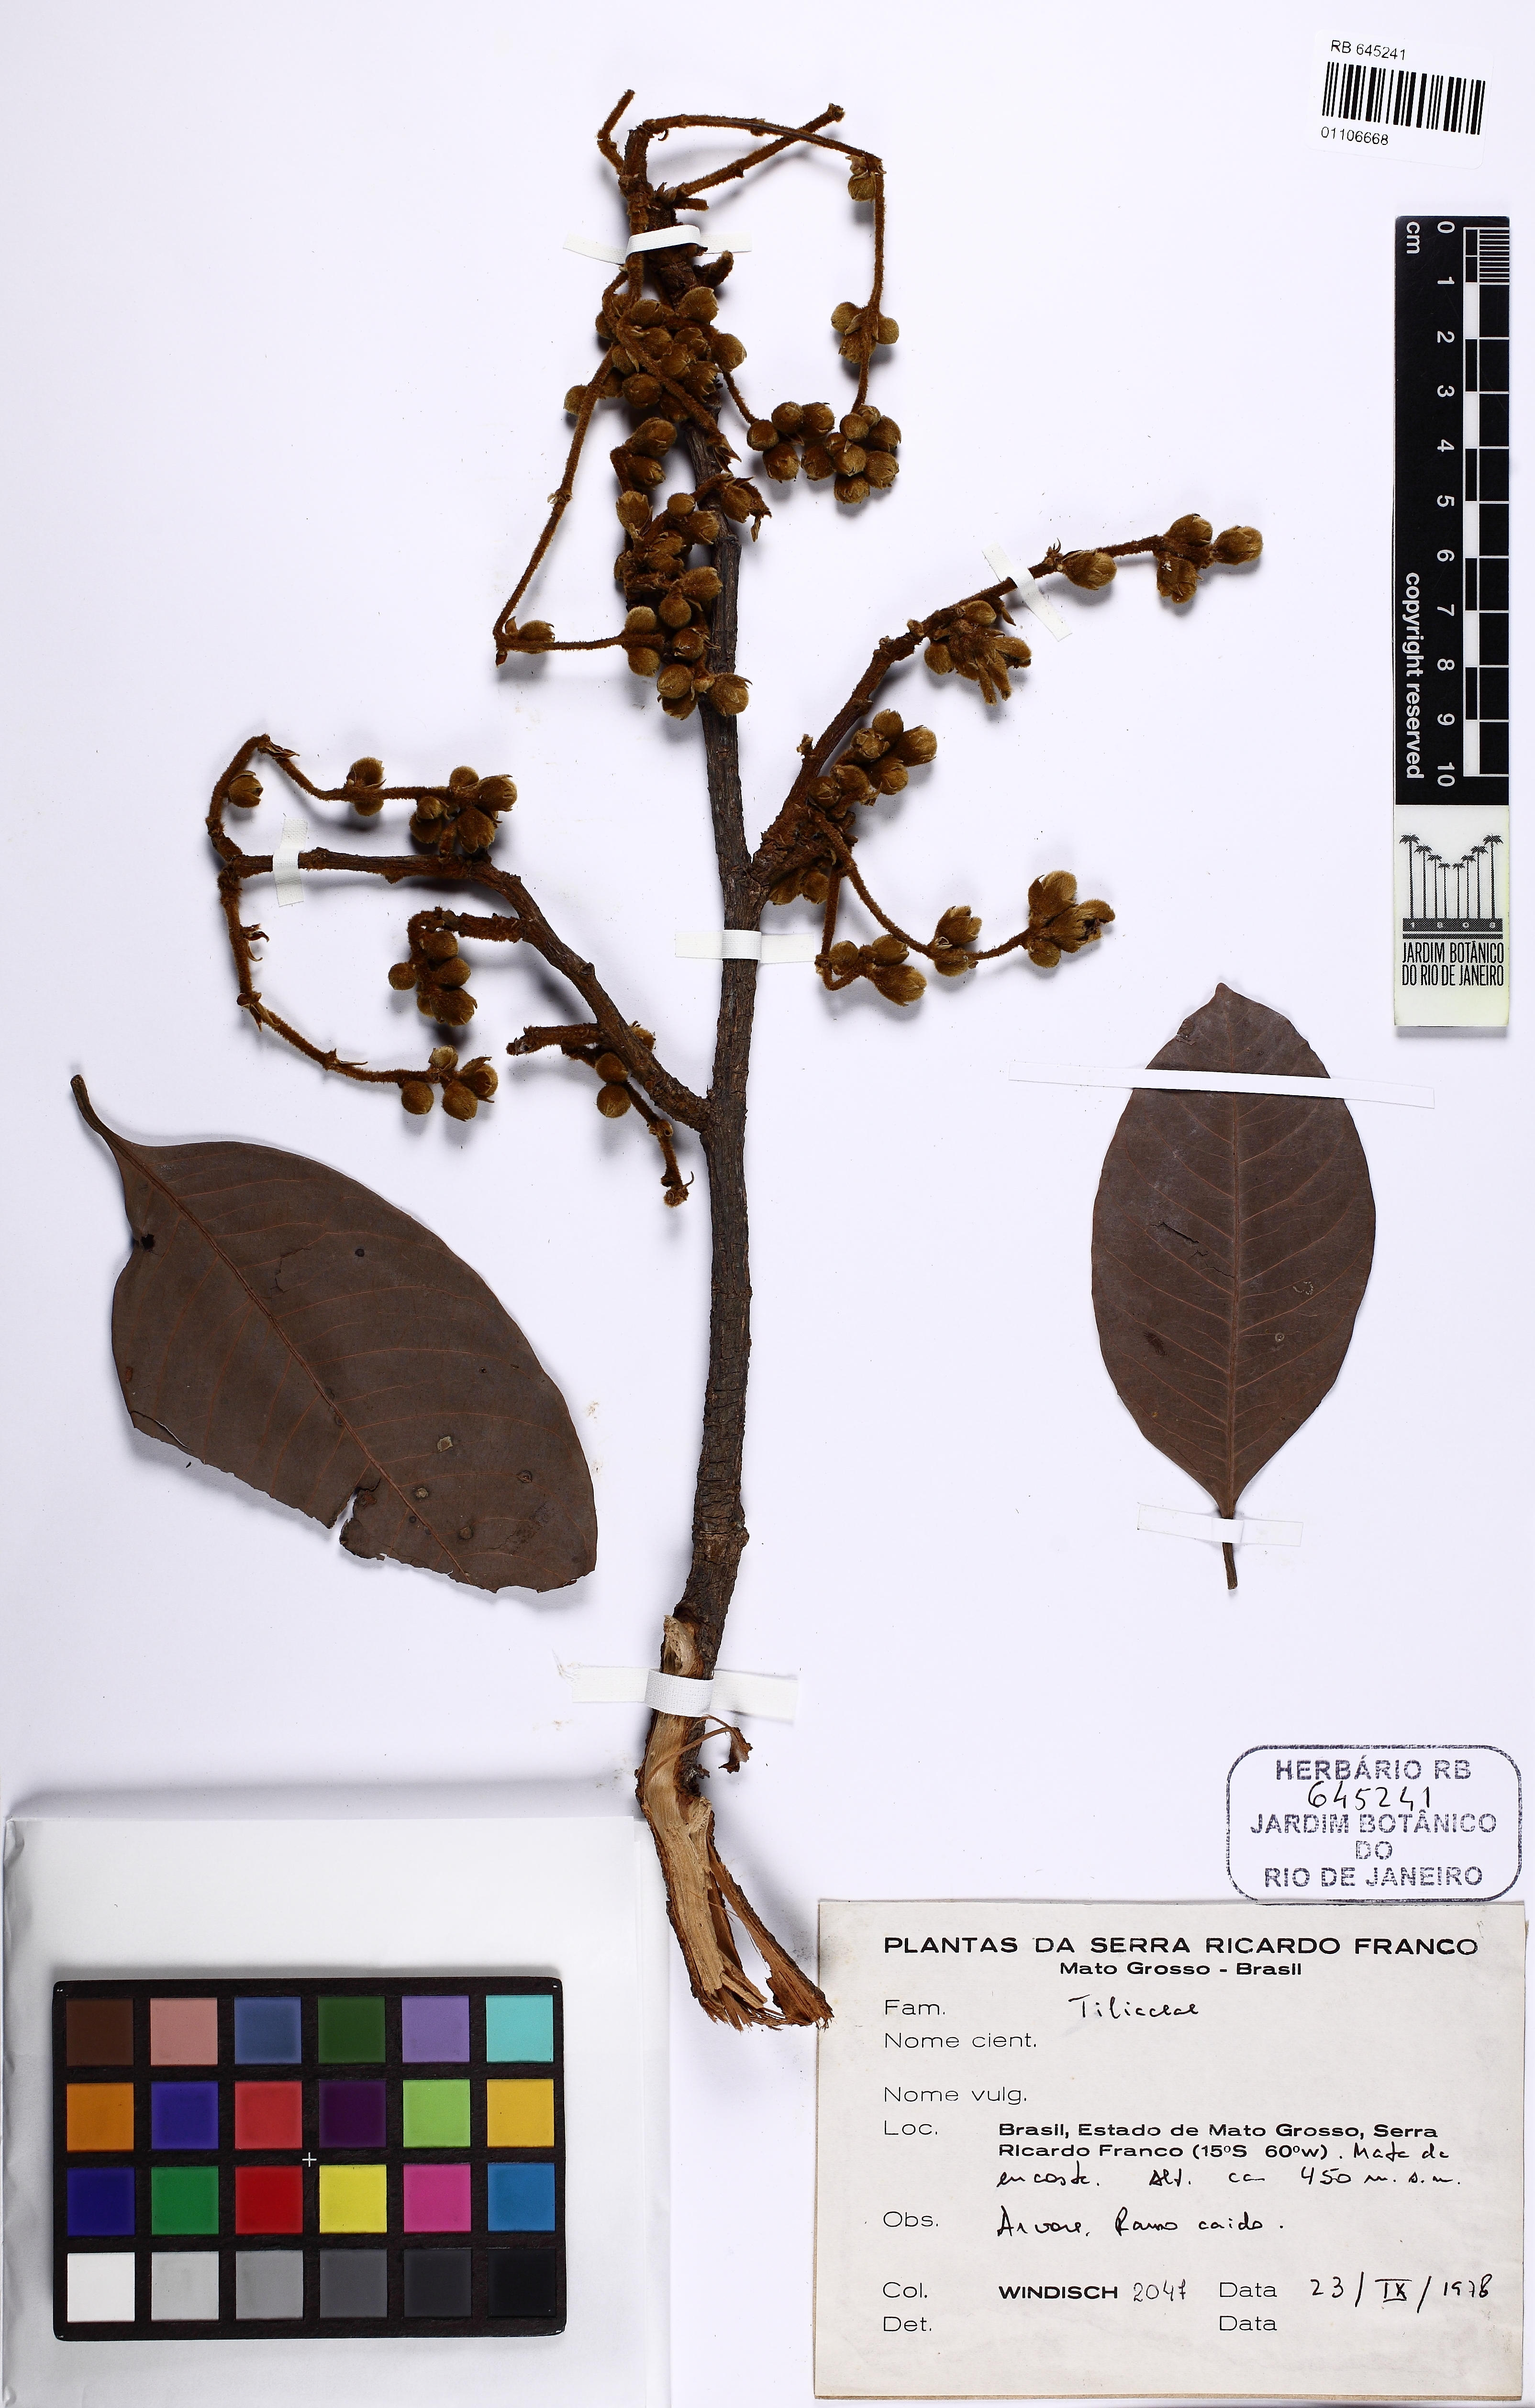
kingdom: Plantae
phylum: Tracheophyta
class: Magnoliopsida
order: Malpighiales
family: Salicaceae
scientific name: Salicaceae
